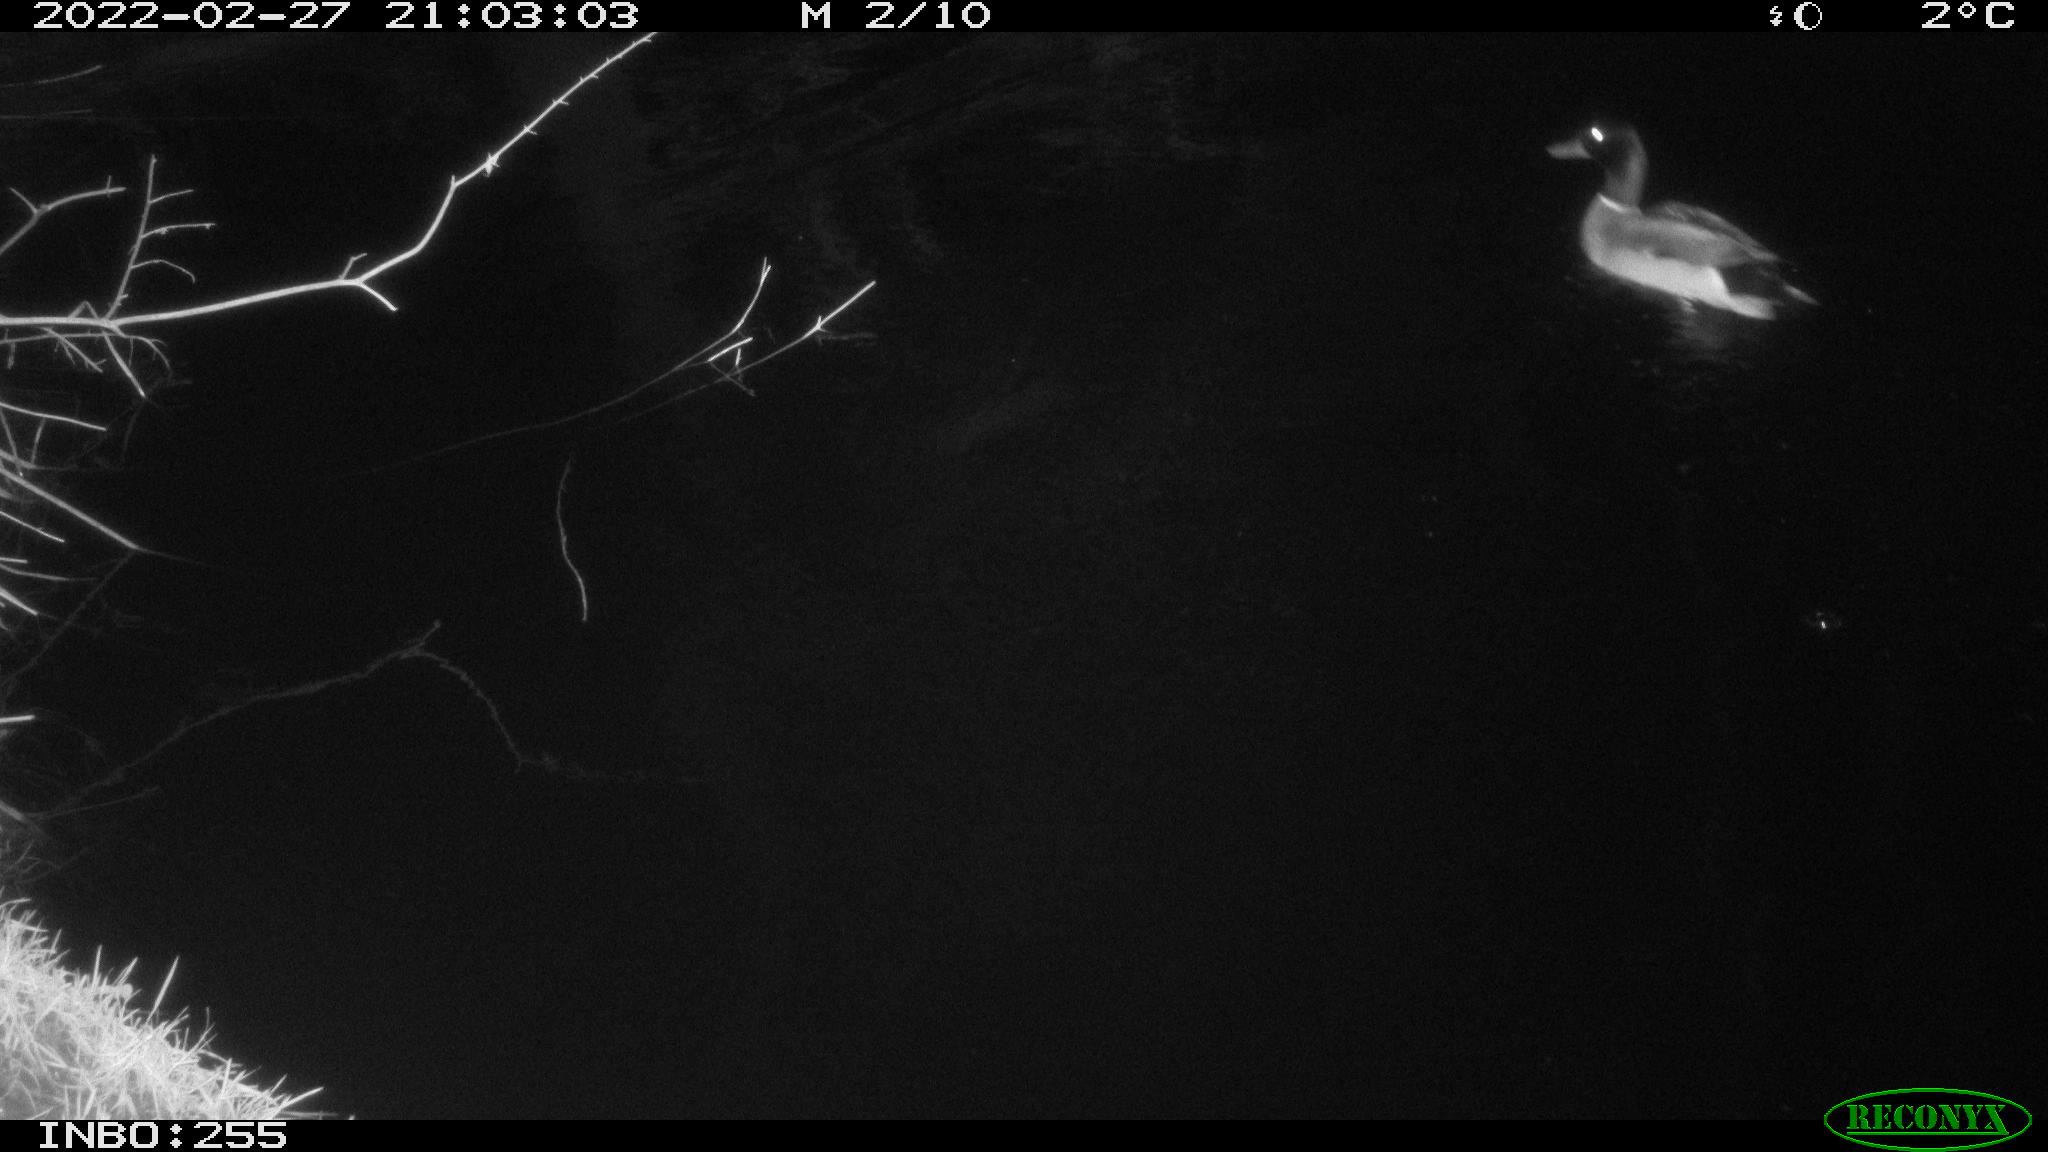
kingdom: Animalia
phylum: Chordata
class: Aves
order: Anseriformes
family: Anatidae
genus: Anas
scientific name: Anas platyrhynchos
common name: Mallard
